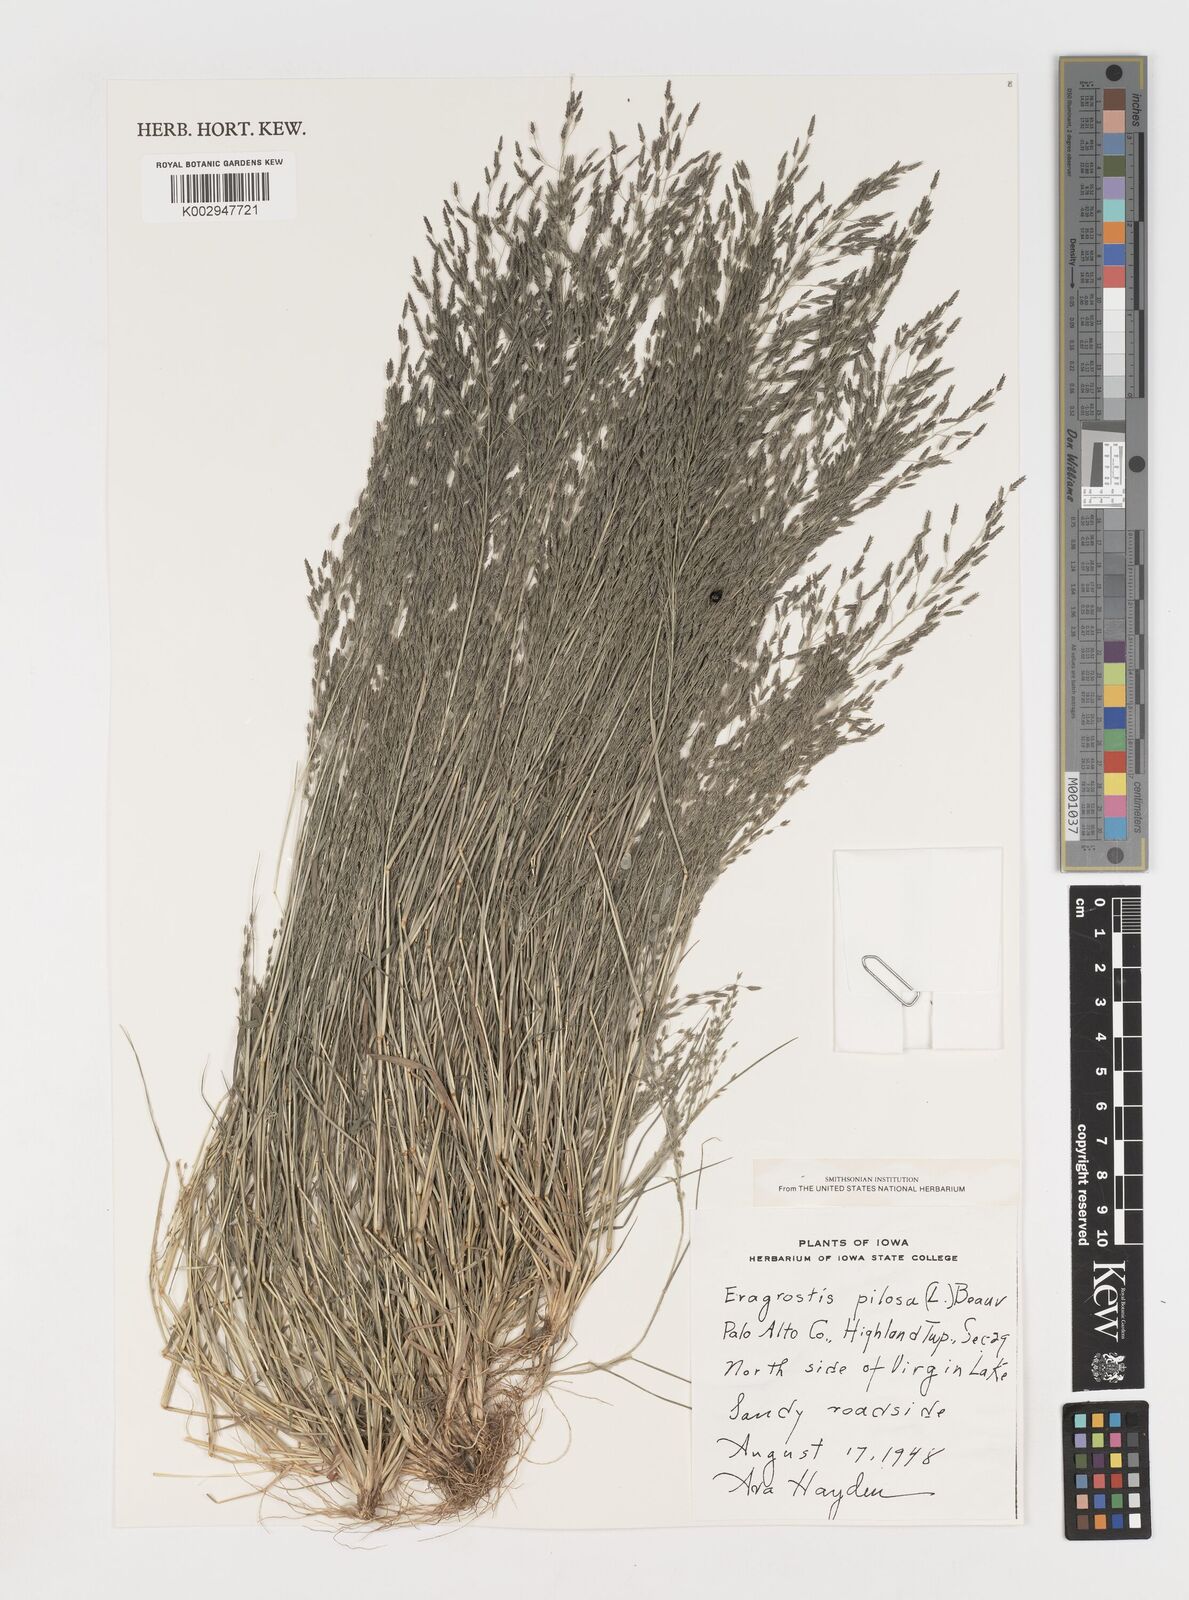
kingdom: Plantae
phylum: Tracheophyta
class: Liliopsida
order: Poales
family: Poaceae
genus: Eragrostis
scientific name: Eragrostis pilosa
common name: Indian lovegrass
